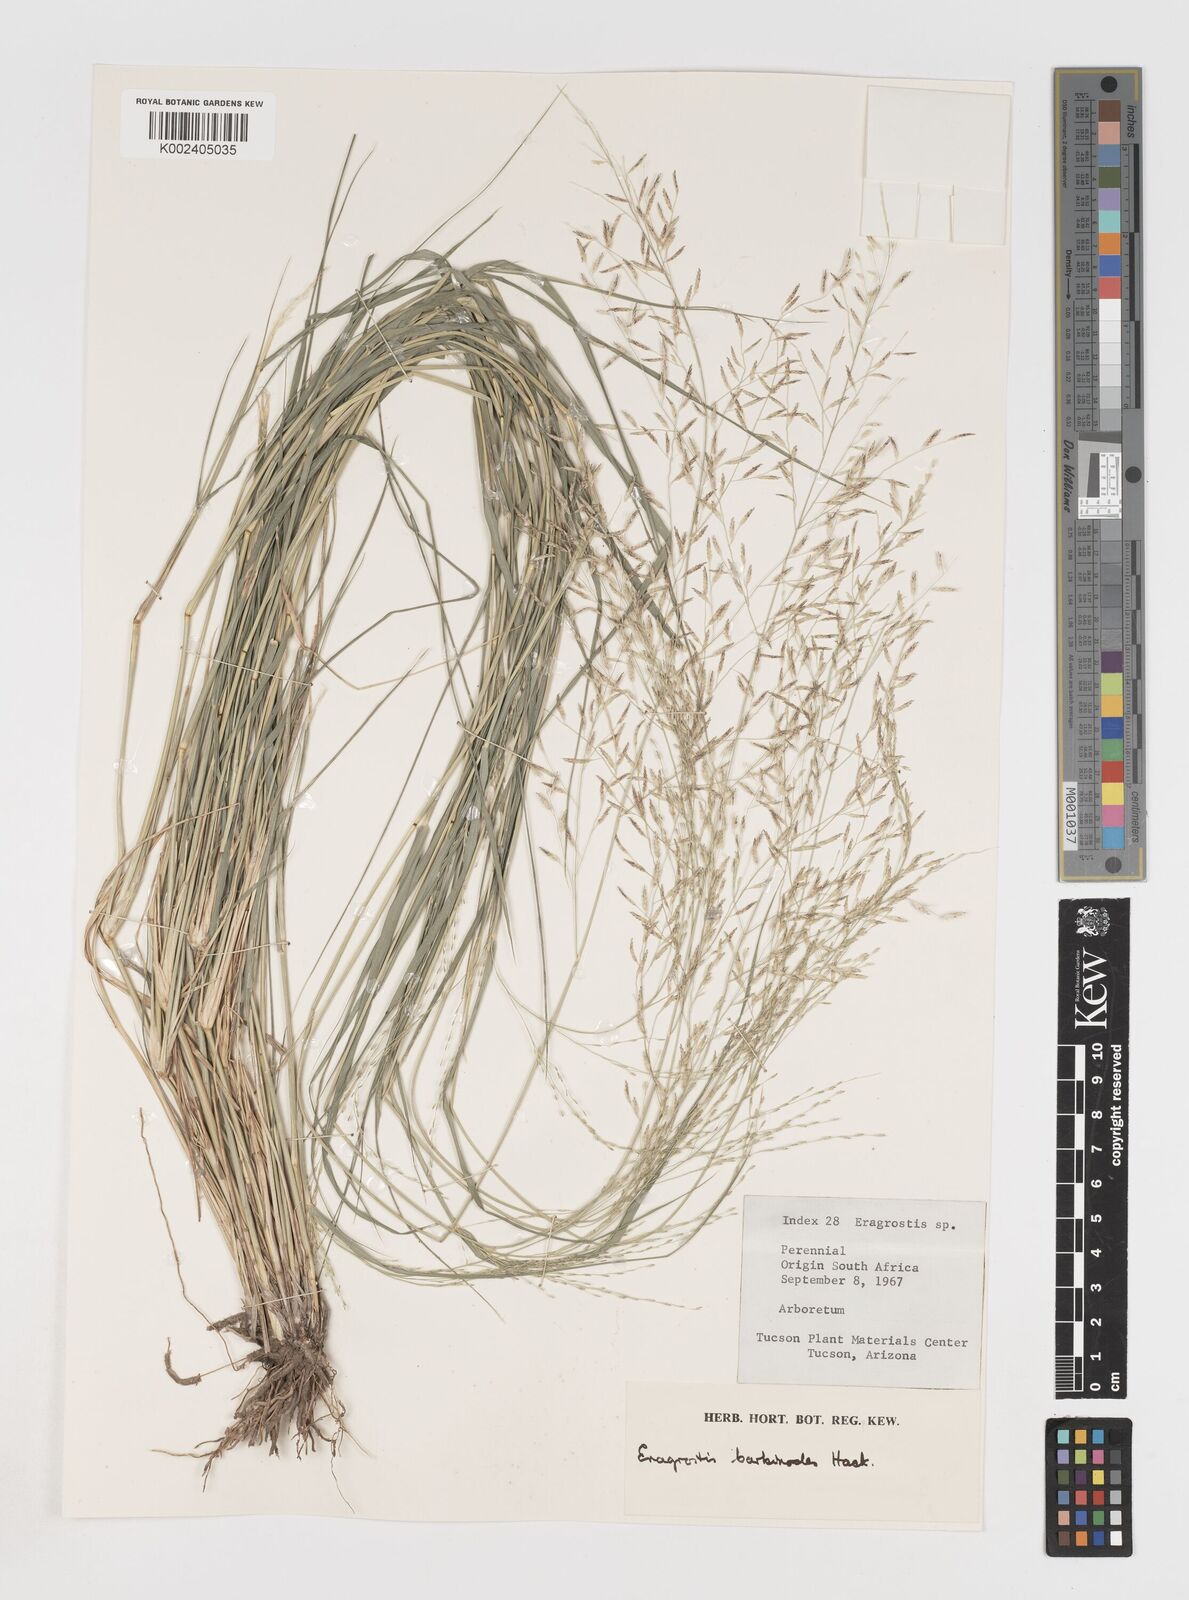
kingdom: Plantae
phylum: Tracheophyta
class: Liliopsida
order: Poales
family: Poaceae
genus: Eragrostis
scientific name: Eragrostis barbinodis
